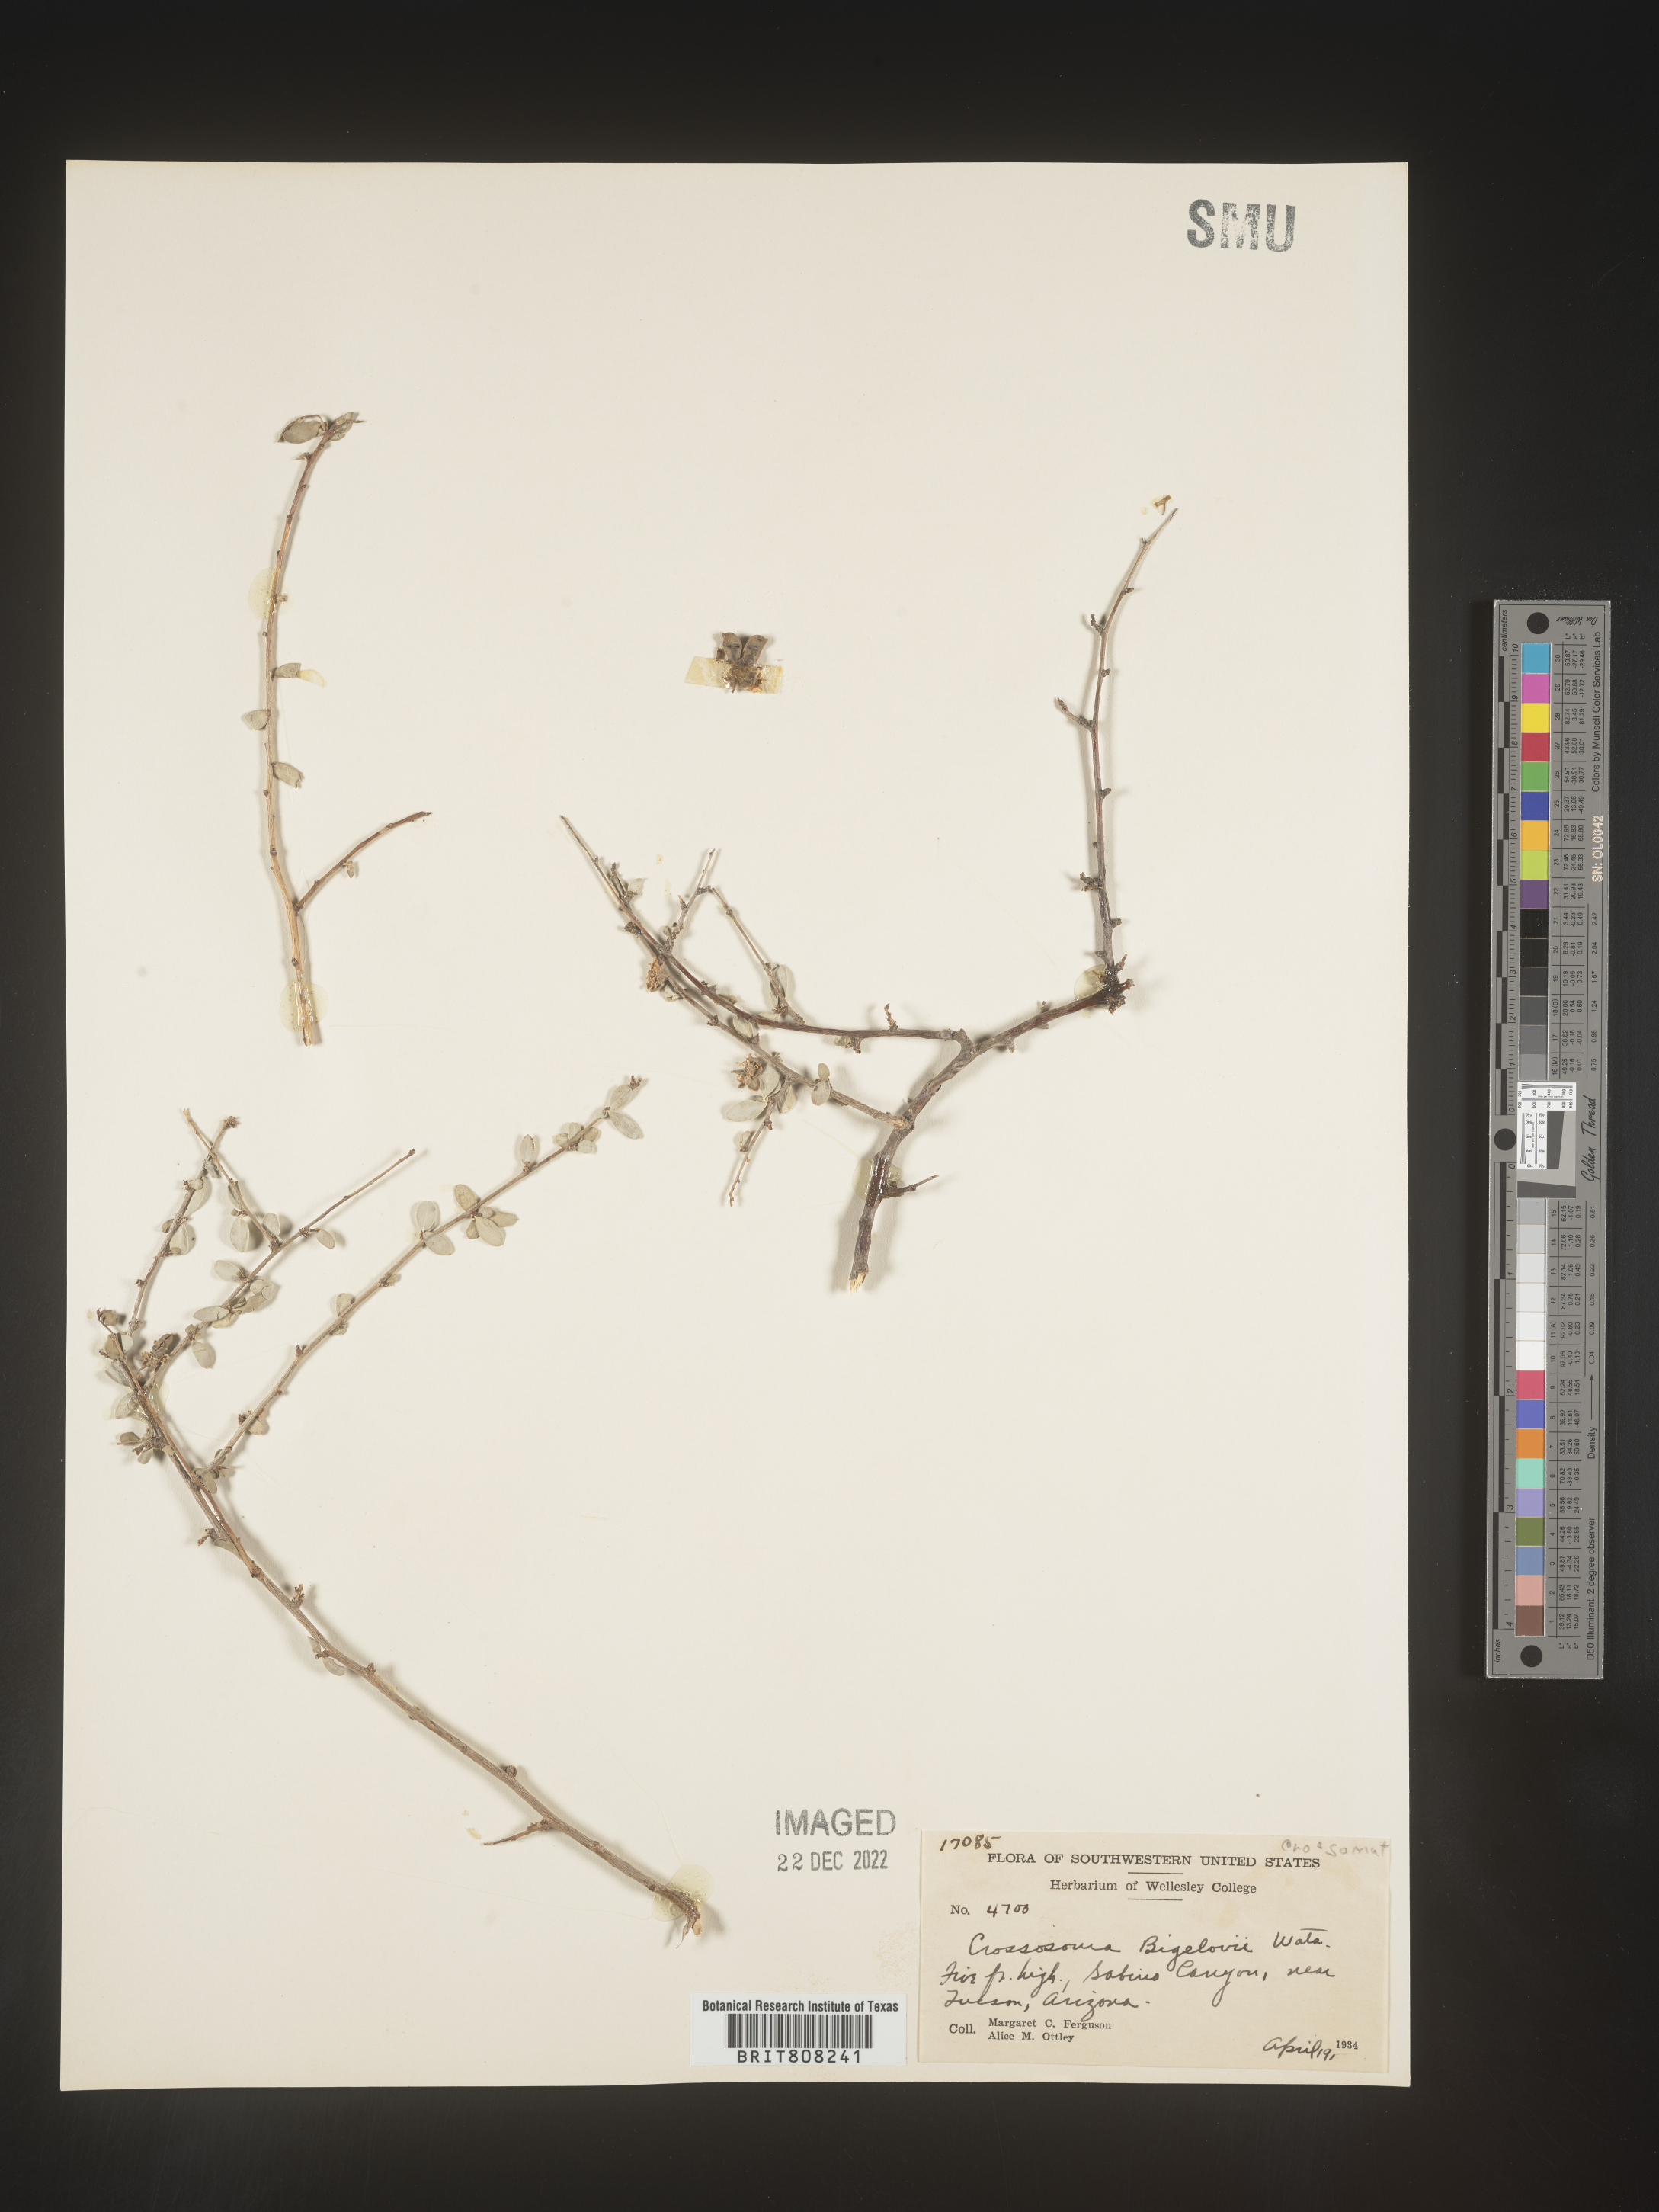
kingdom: Plantae
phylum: Tracheophyta
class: Magnoliopsida
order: Crossosomatales
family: Crossosomataceae
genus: Crossosoma
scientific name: Crossosoma bigelovii
